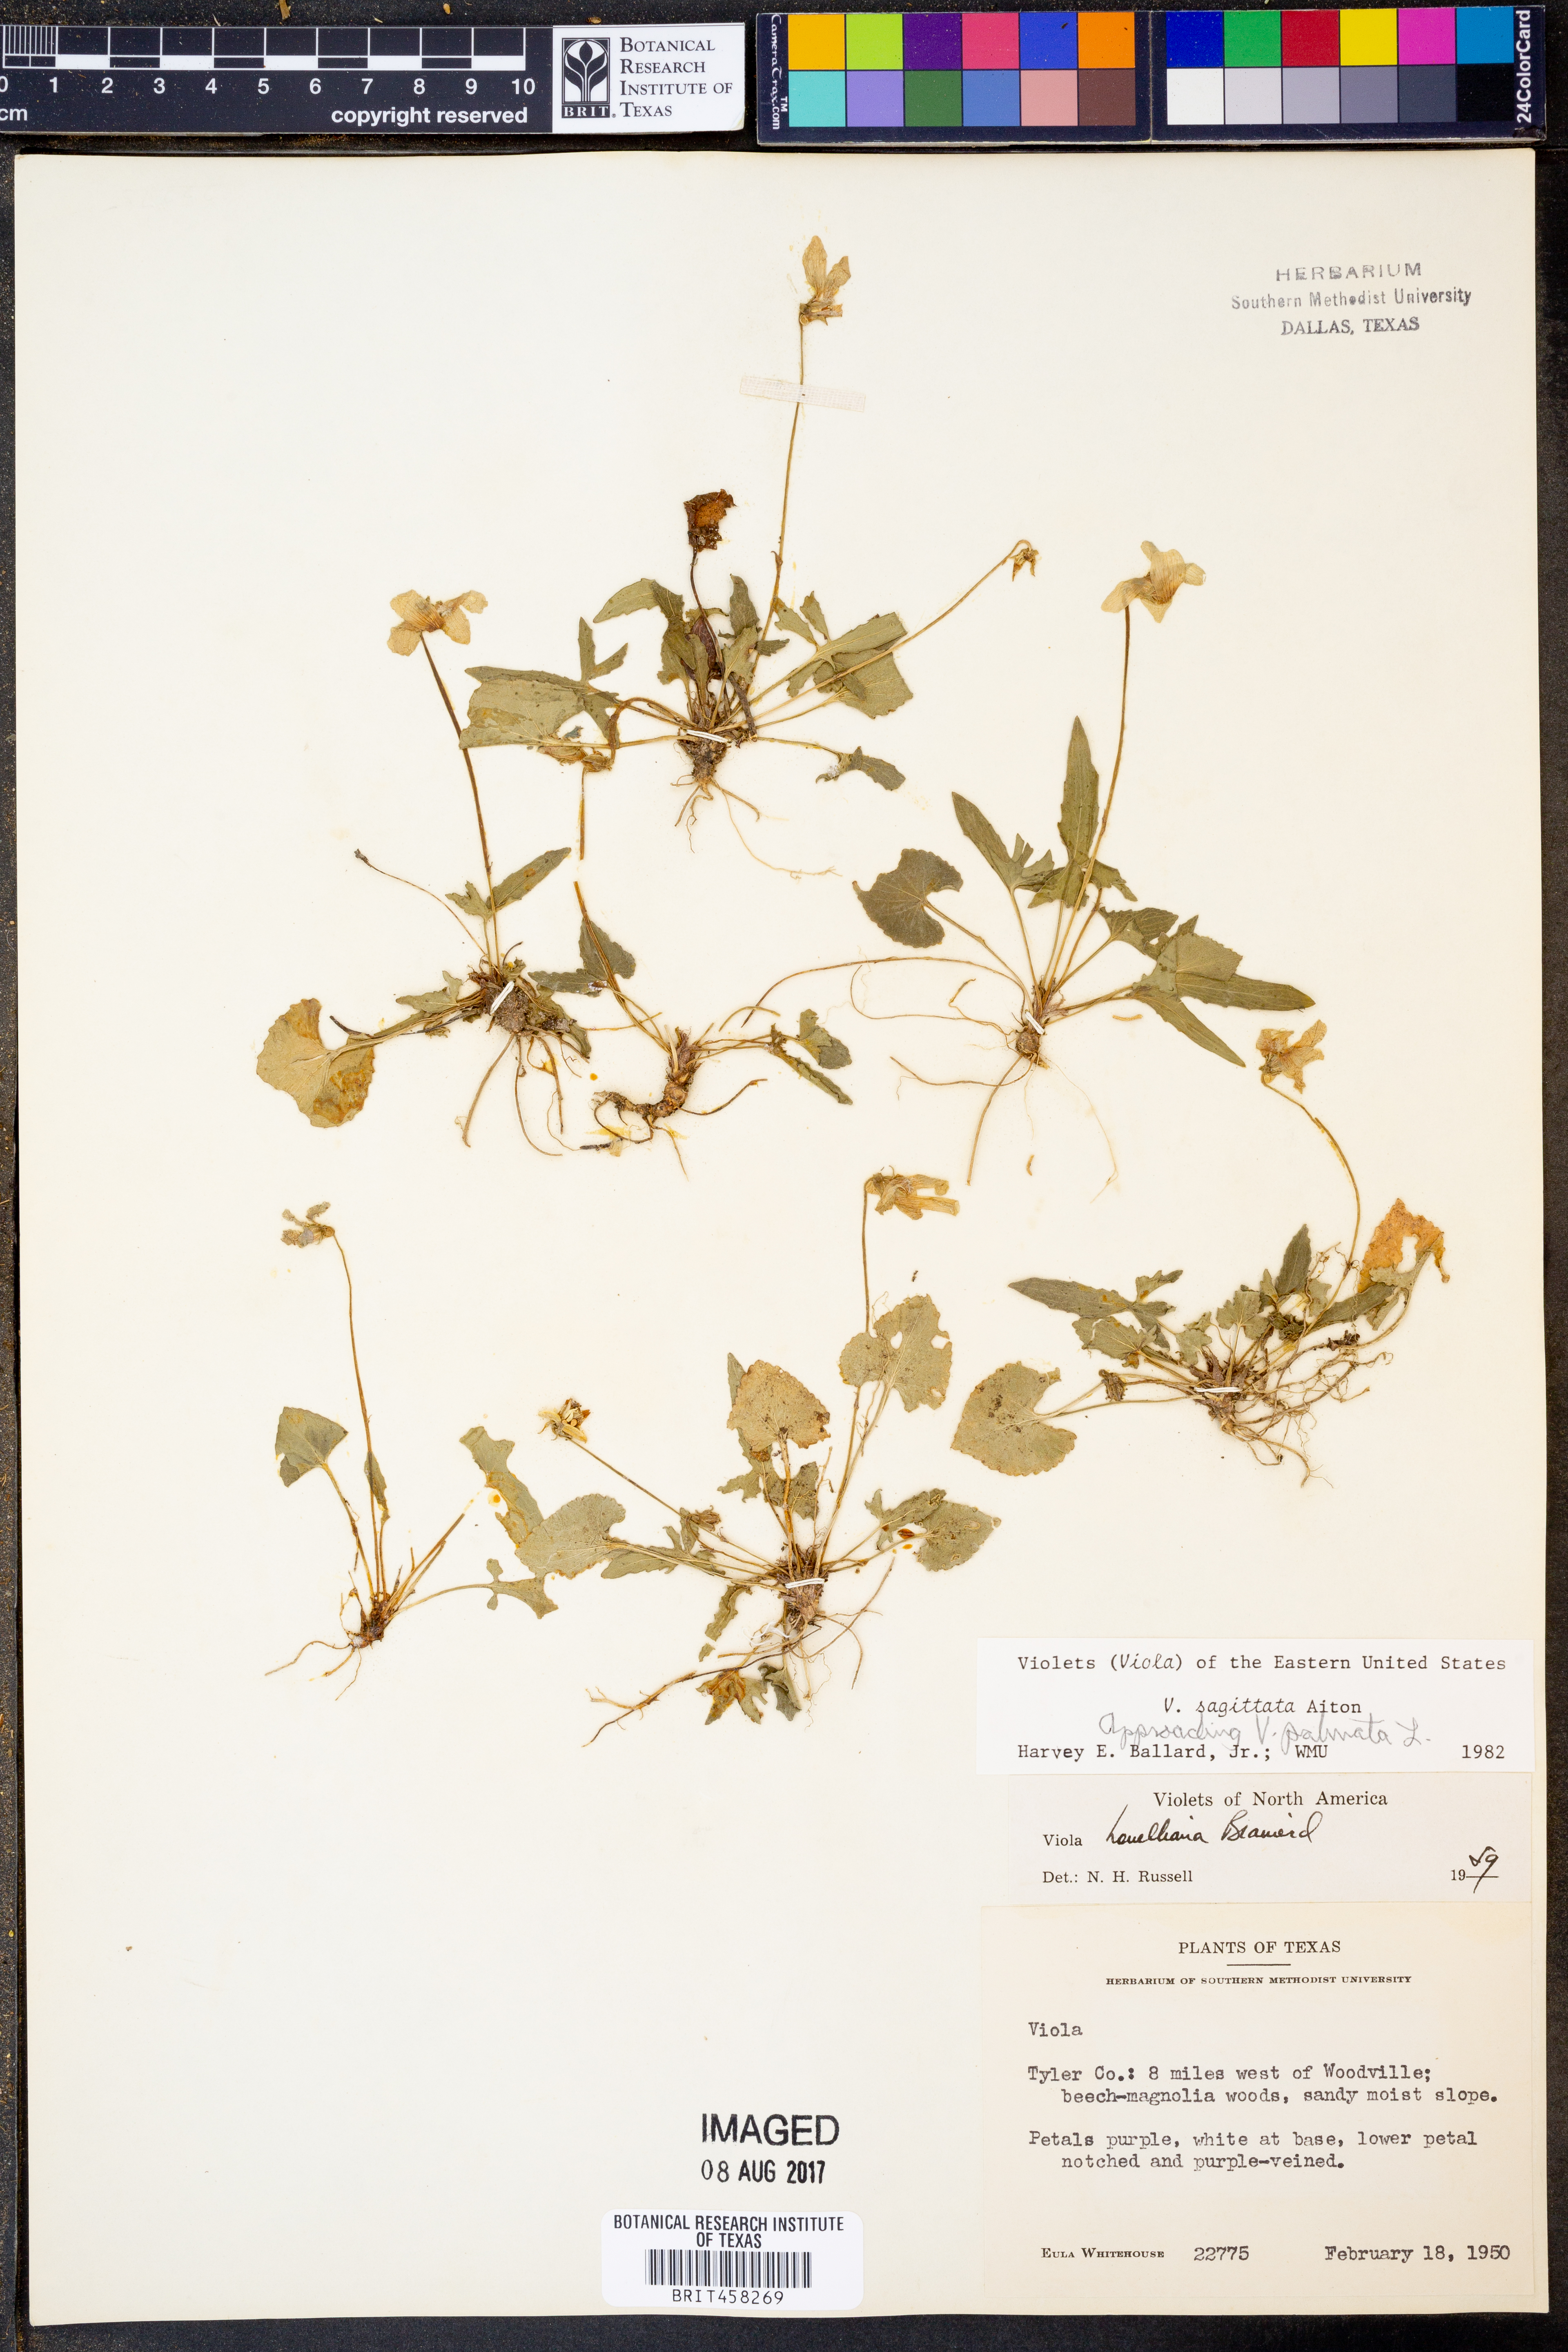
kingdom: Plantae
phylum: Tracheophyta
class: Magnoliopsida
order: Malpighiales
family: Violaceae
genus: Viola
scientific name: Viola sagittata
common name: Arrowhead violet
